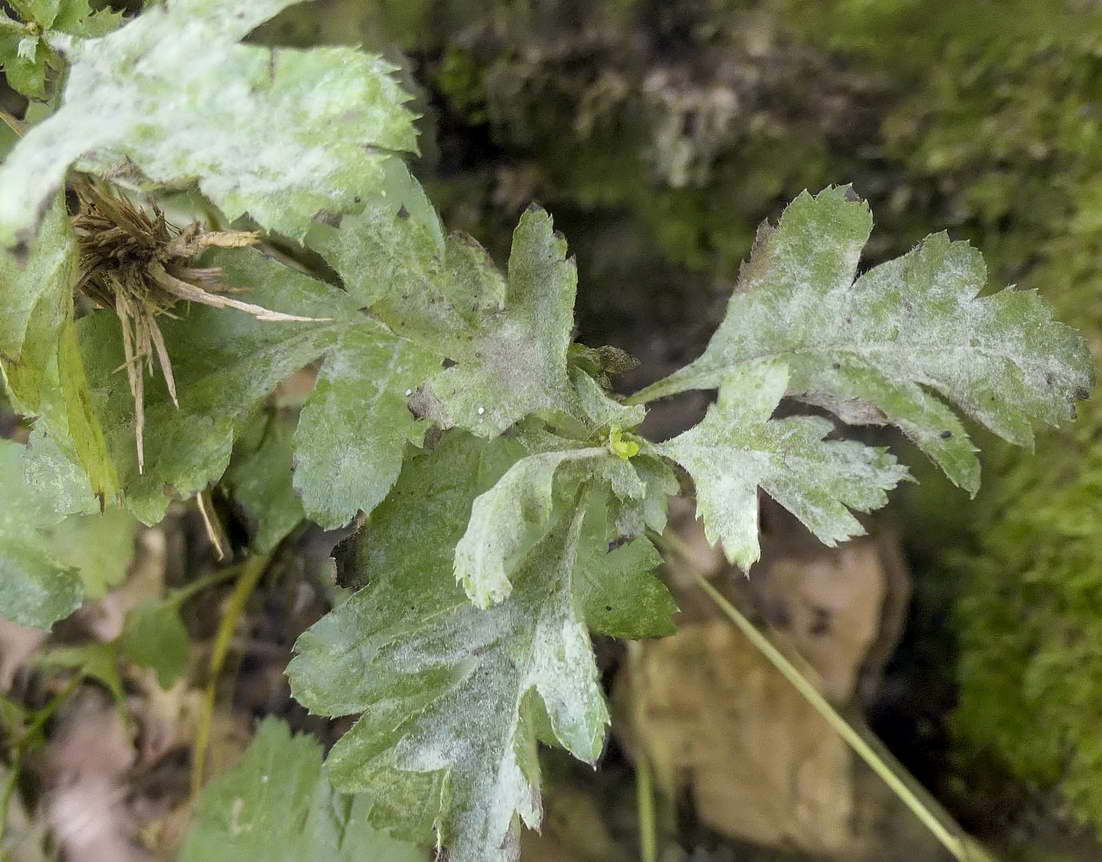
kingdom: Fungi
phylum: Ascomycota
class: Leotiomycetes
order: Helotiales
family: Erysiphaceae
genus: Podosphaera
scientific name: Podosphaera clandestina
